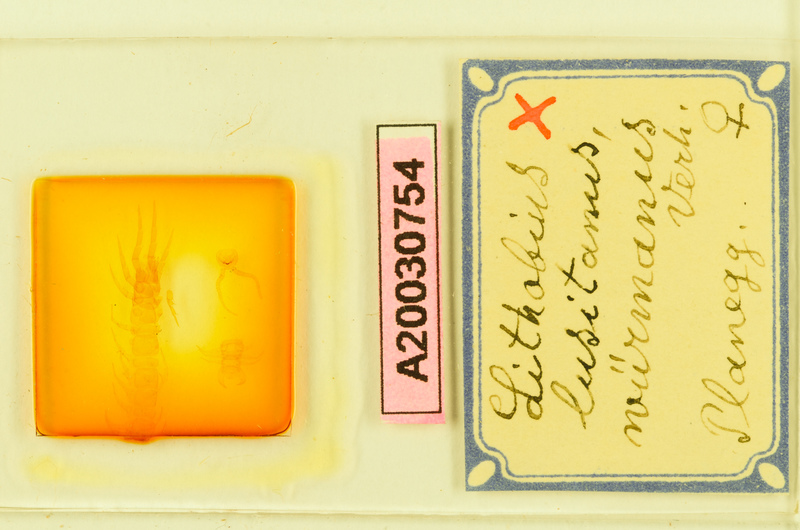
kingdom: Animalia
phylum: Arthropoda
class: Chilopoda
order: Lithobiomorpha
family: Lithobiidae
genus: Lithobius
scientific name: Lithobius borealis
